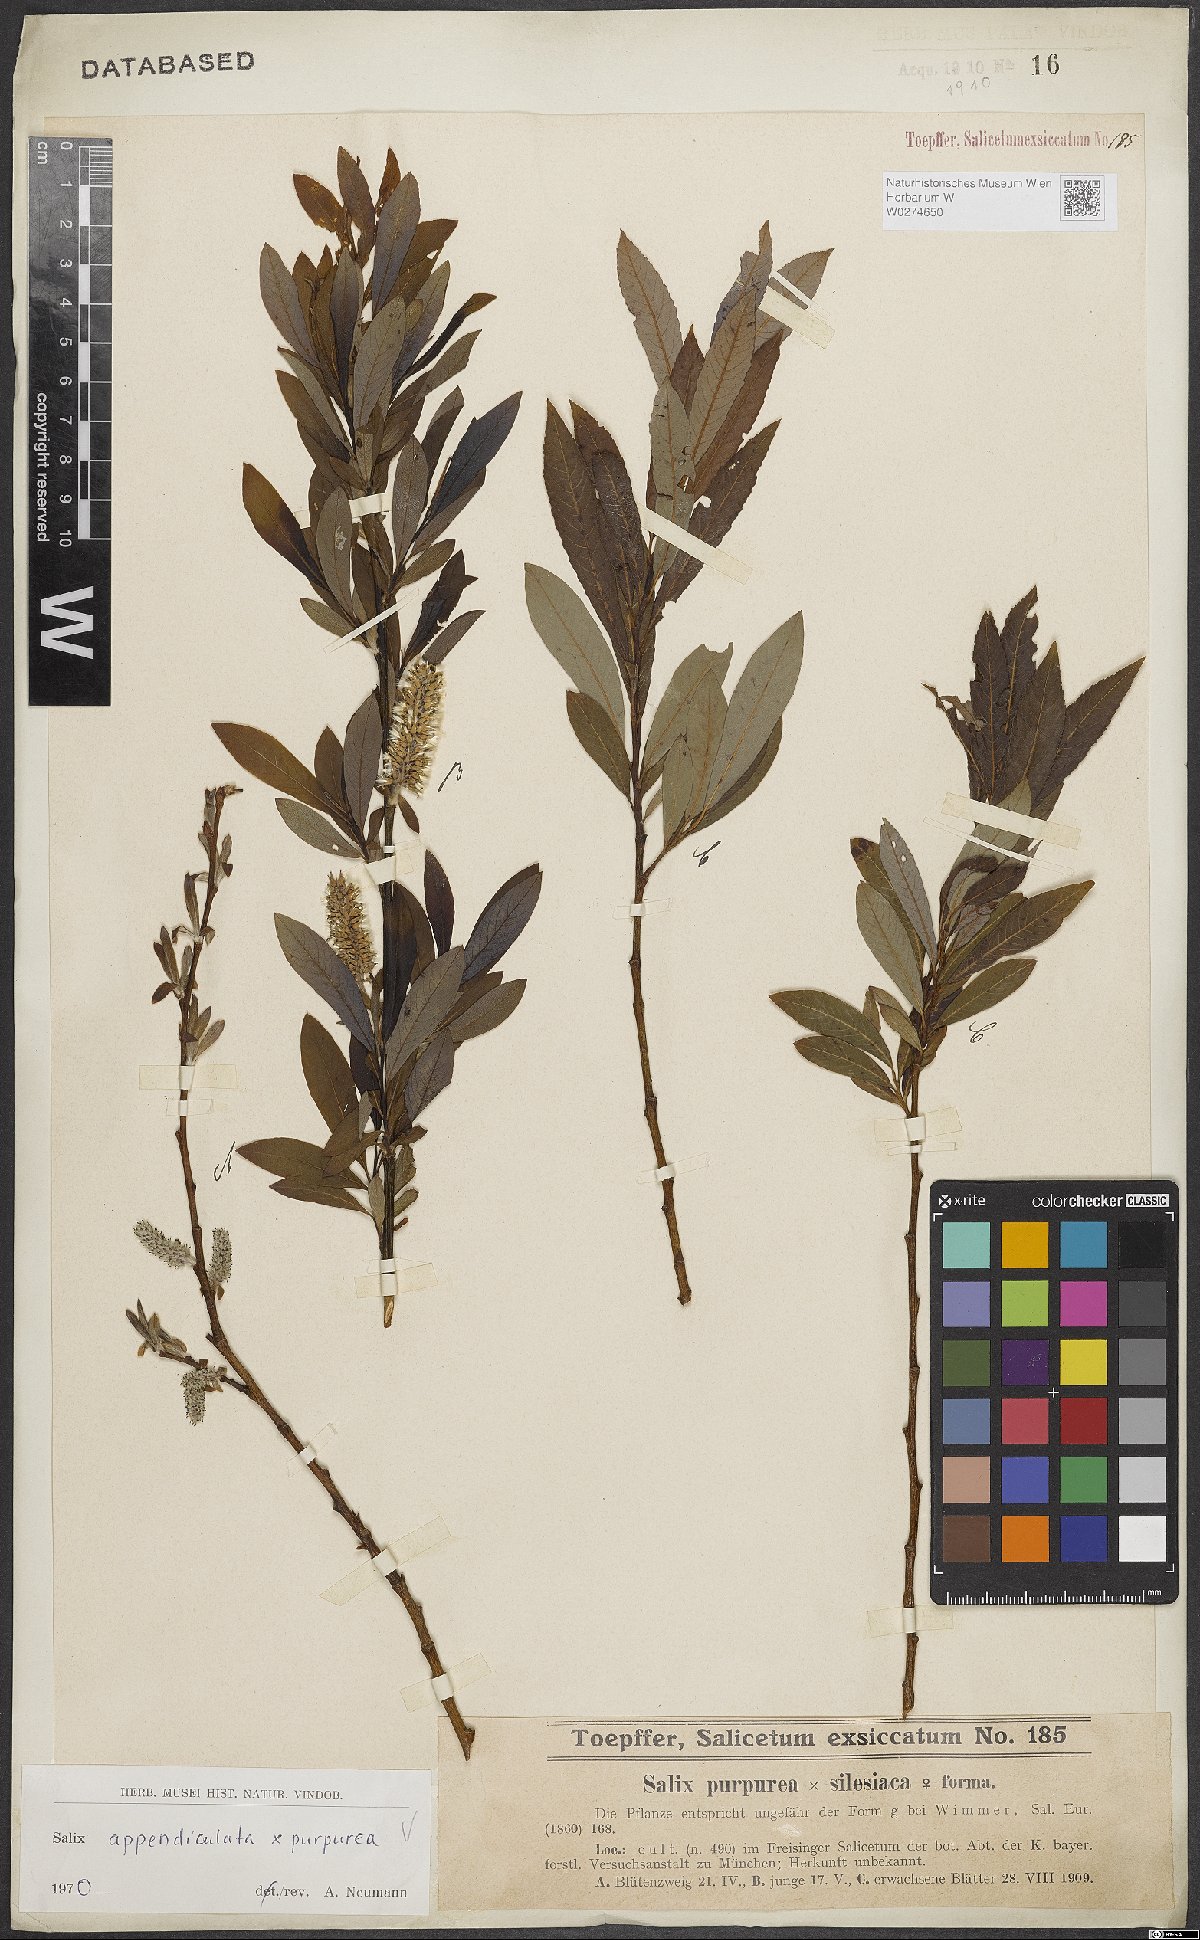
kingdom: Plantae
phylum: Tracheophyta
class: Magnoliopsida
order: Malpighiales
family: Salicaceae
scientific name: Salicaceae
